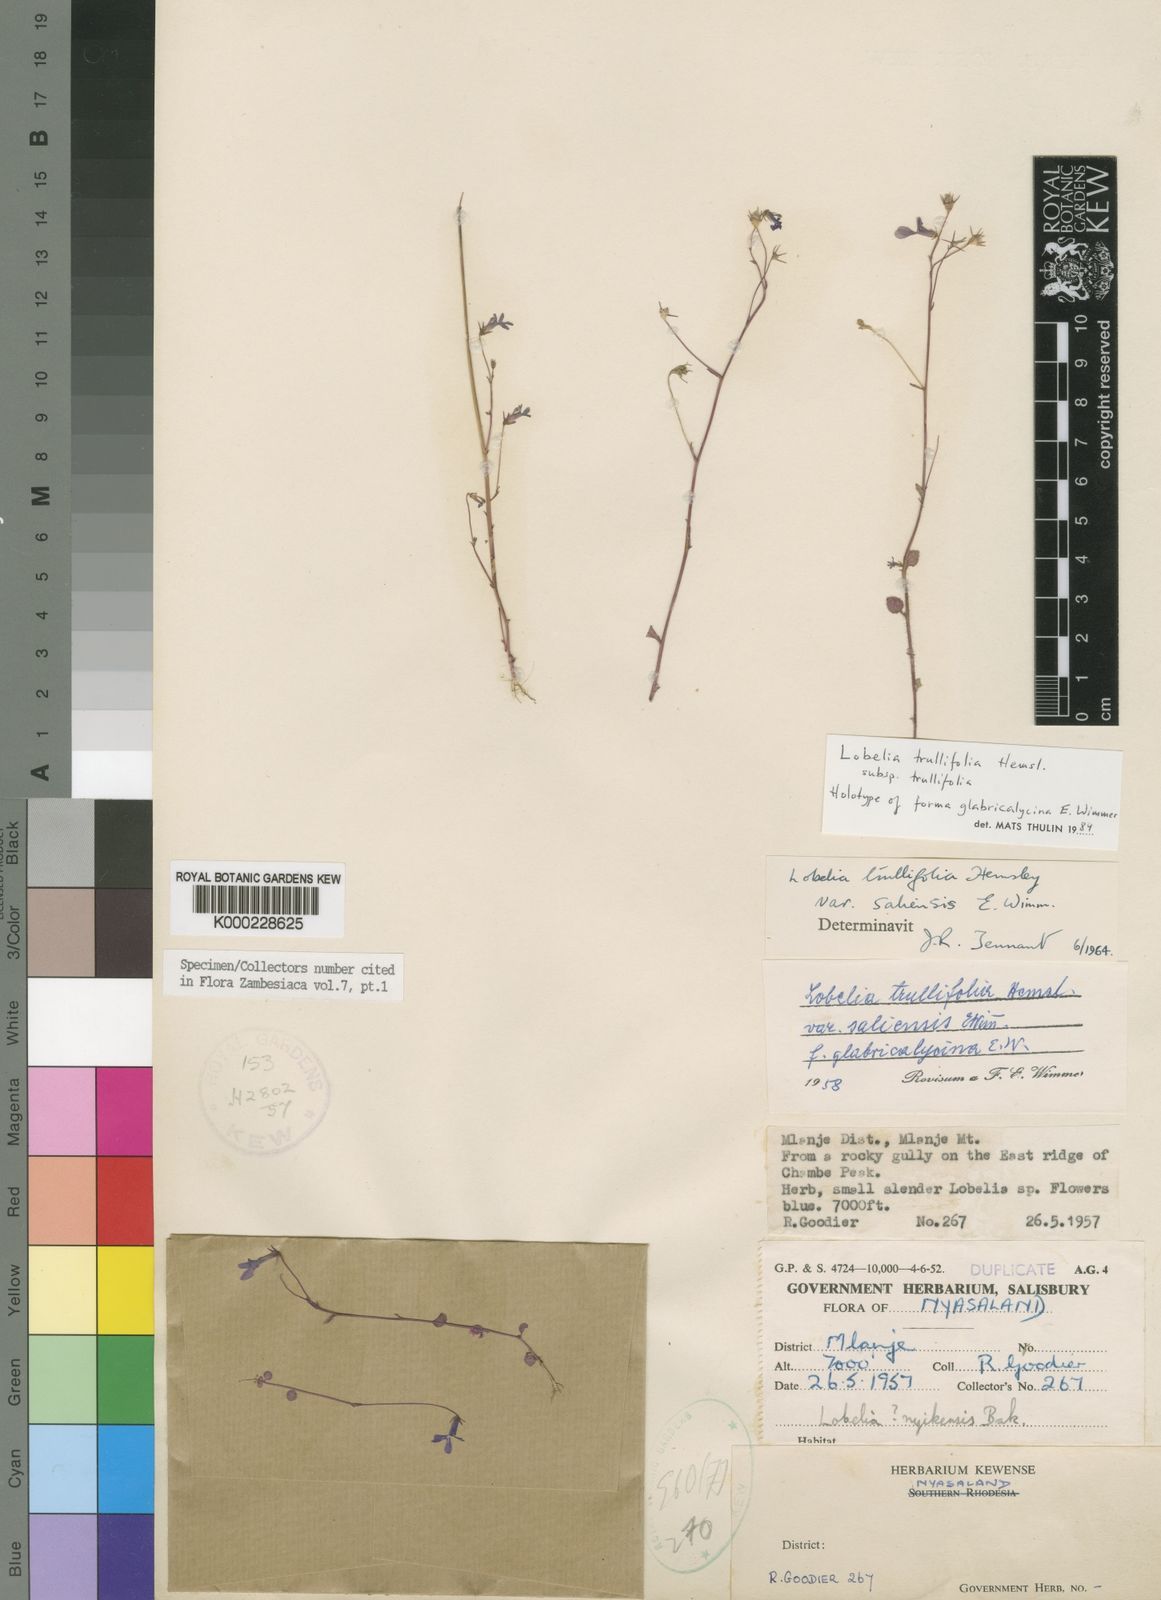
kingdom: Plantae
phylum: Tracheophyta
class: Magnoliopsida
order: Asterales
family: Campanulaceae
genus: Lobelia
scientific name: Lobelia trullifolia
